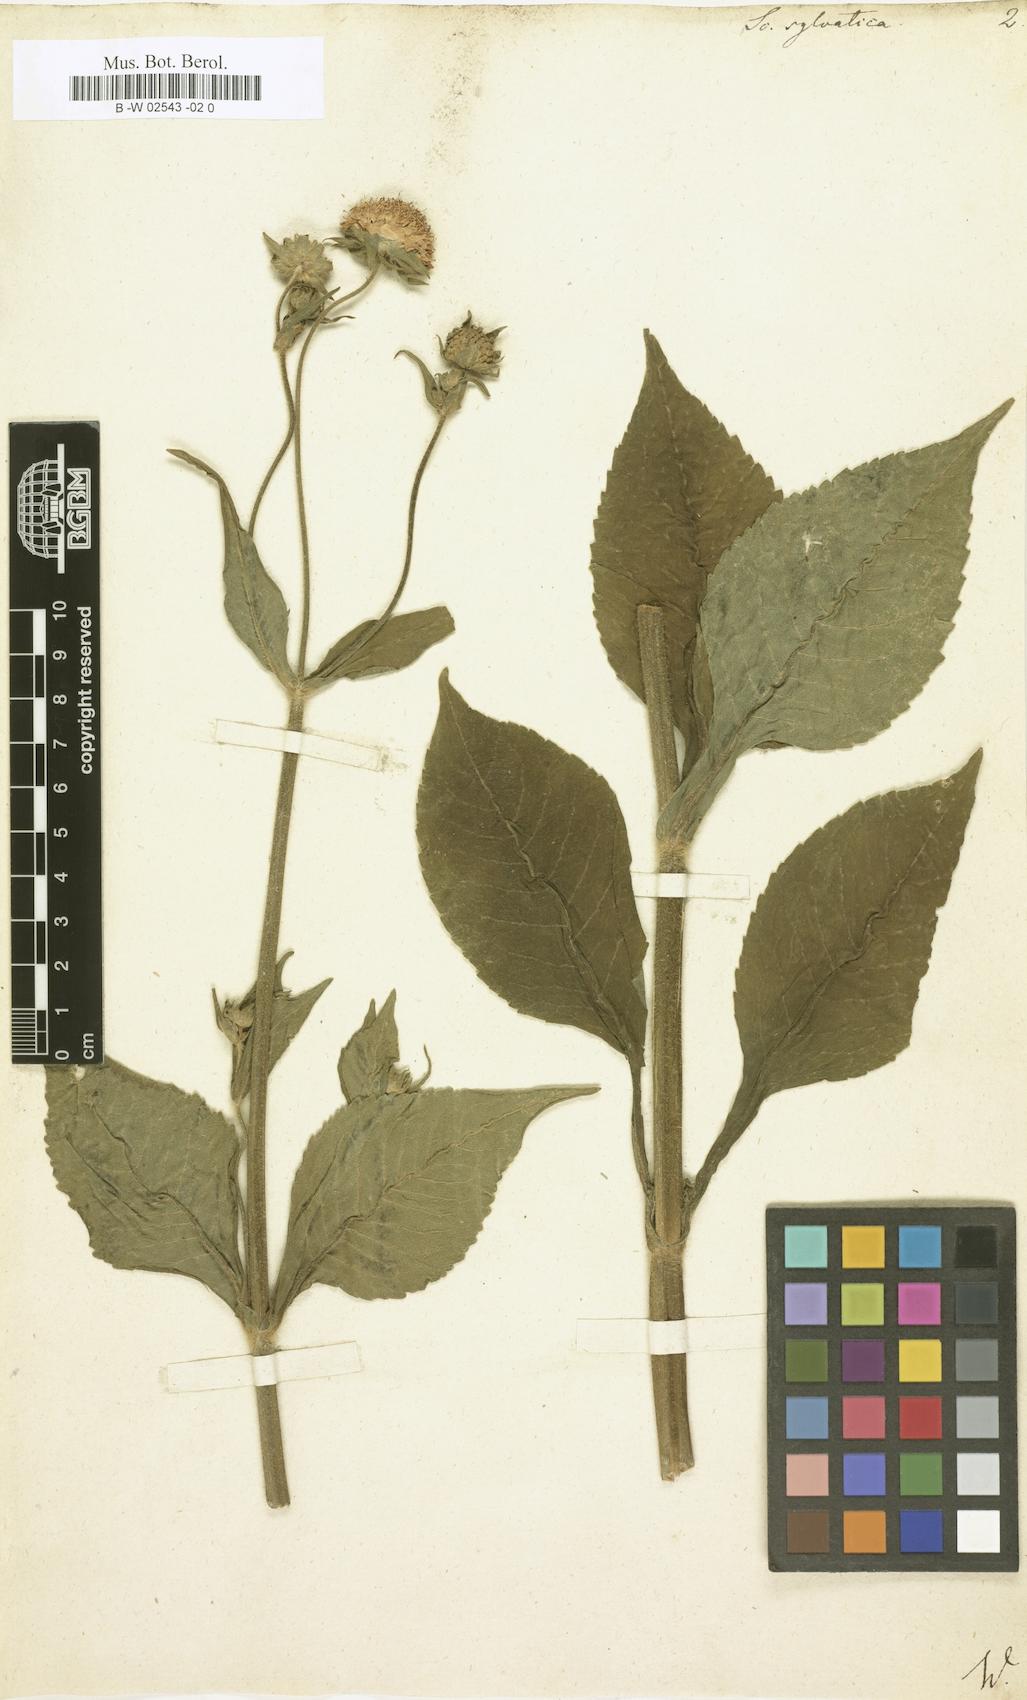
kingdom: Plantae
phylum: Tracheophyta
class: Magnoliopsida
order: Dipsacales
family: Caprifoliaceae
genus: Knautia
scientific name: Knautia drymeia
